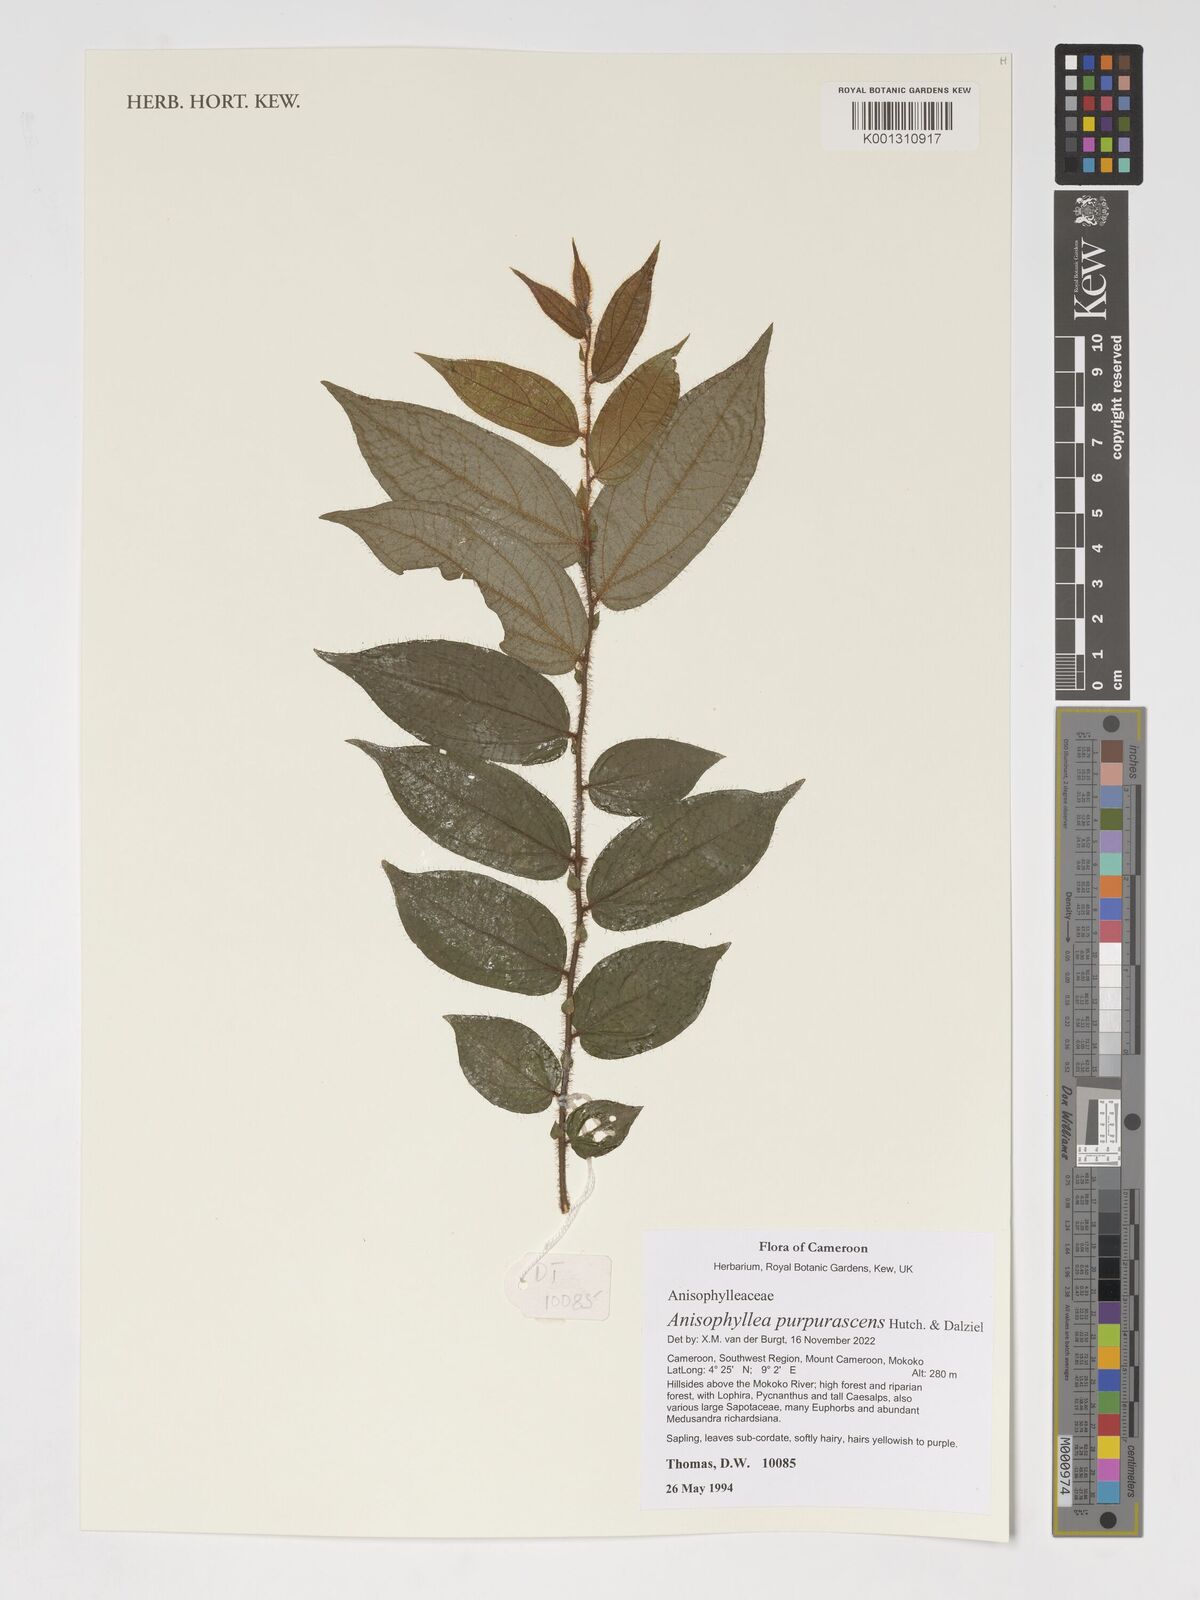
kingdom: Plantae
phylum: Tracheophyta
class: Magnoliopsida
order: Cucurbitales
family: Anisophylleaceae
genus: Anisophyllea
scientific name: Anisophyllea purpurascens
